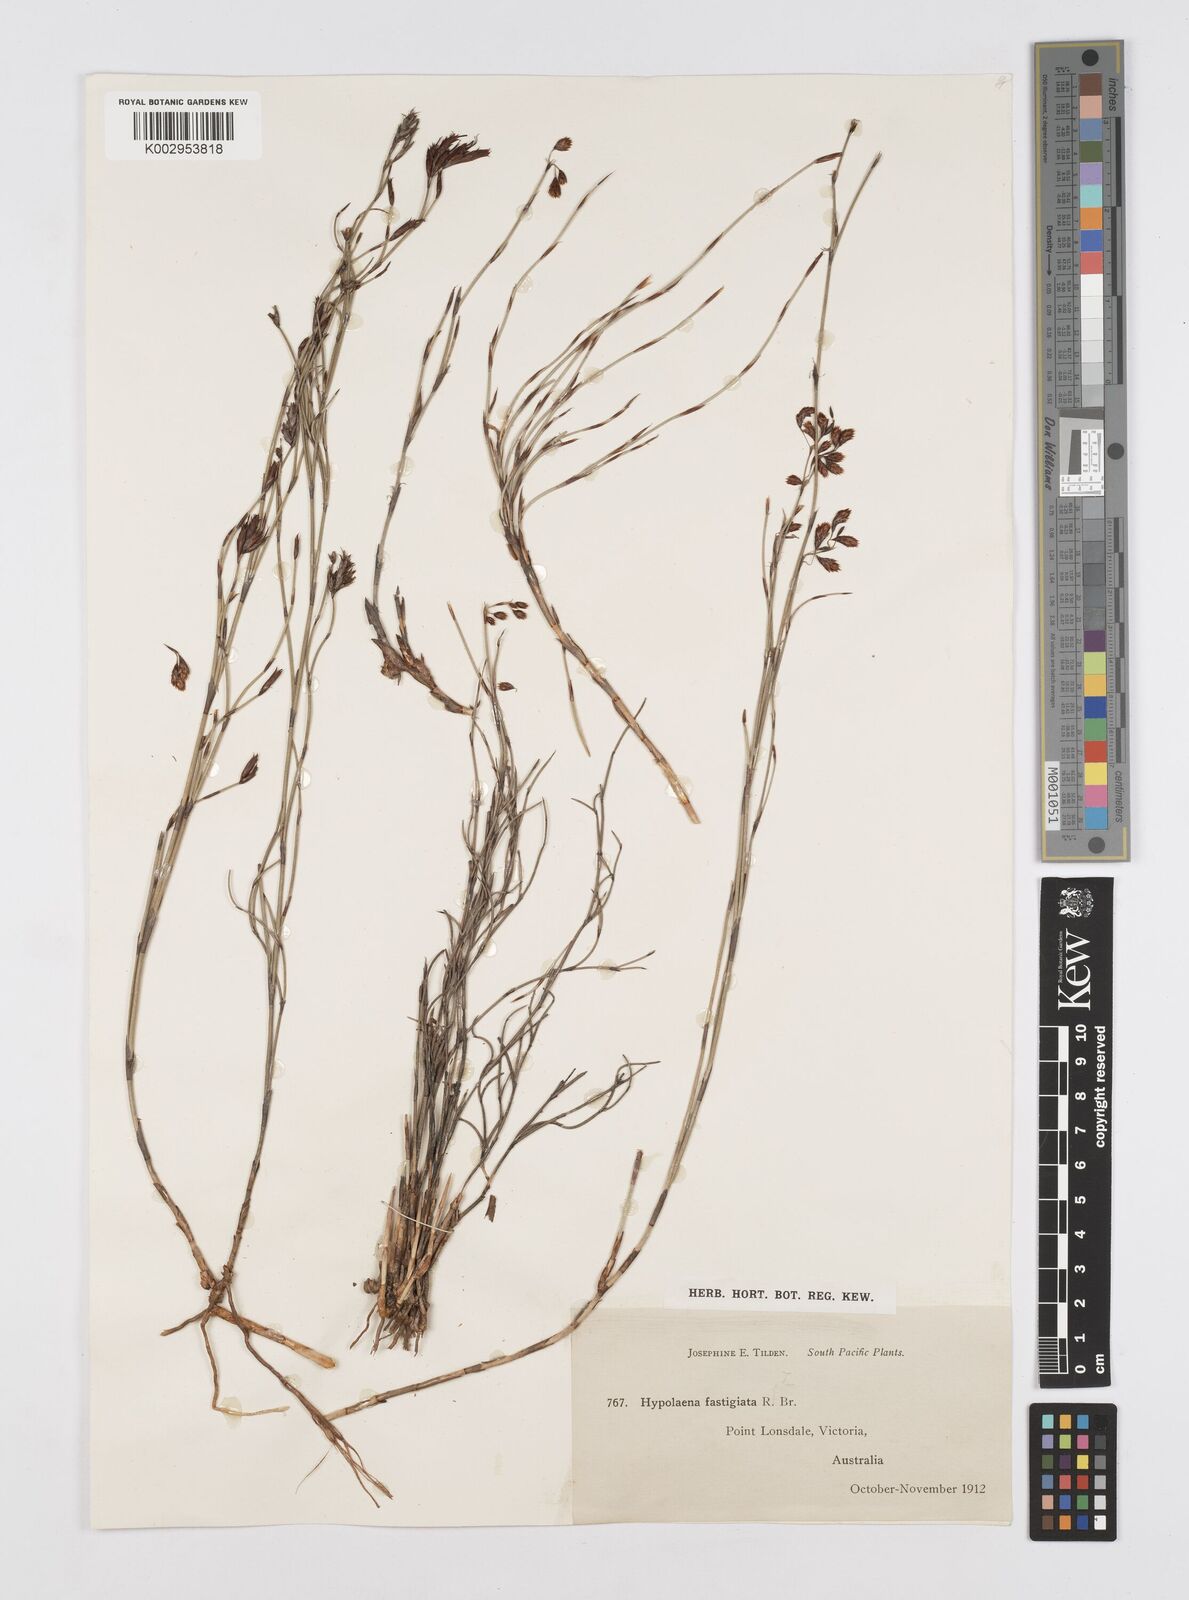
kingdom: Plantae
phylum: Tracheophyta
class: Liliopsida
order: Poales
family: Restionaceae
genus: Hypolaena
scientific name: Hypolaena fastigiata
